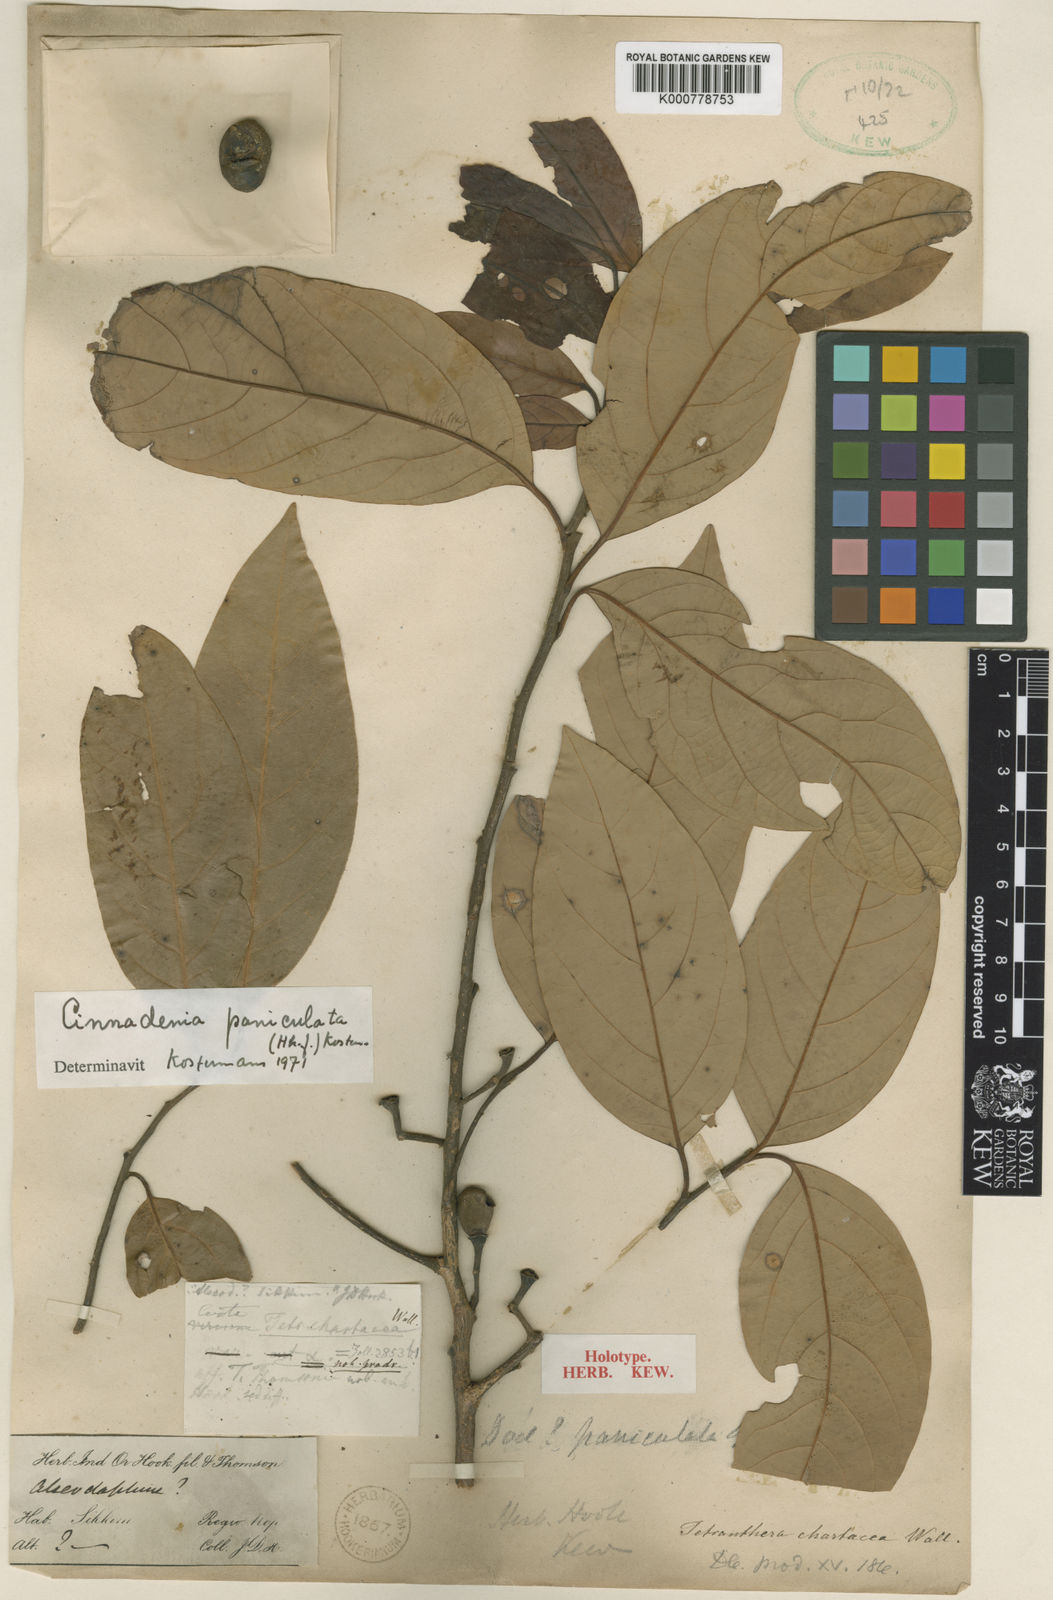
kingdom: Plantae
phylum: Tracheophyta
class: Magnoliopsida
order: Laurales
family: Lauraceae
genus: Cinnadenia
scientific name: Cinnadenia paniculata
